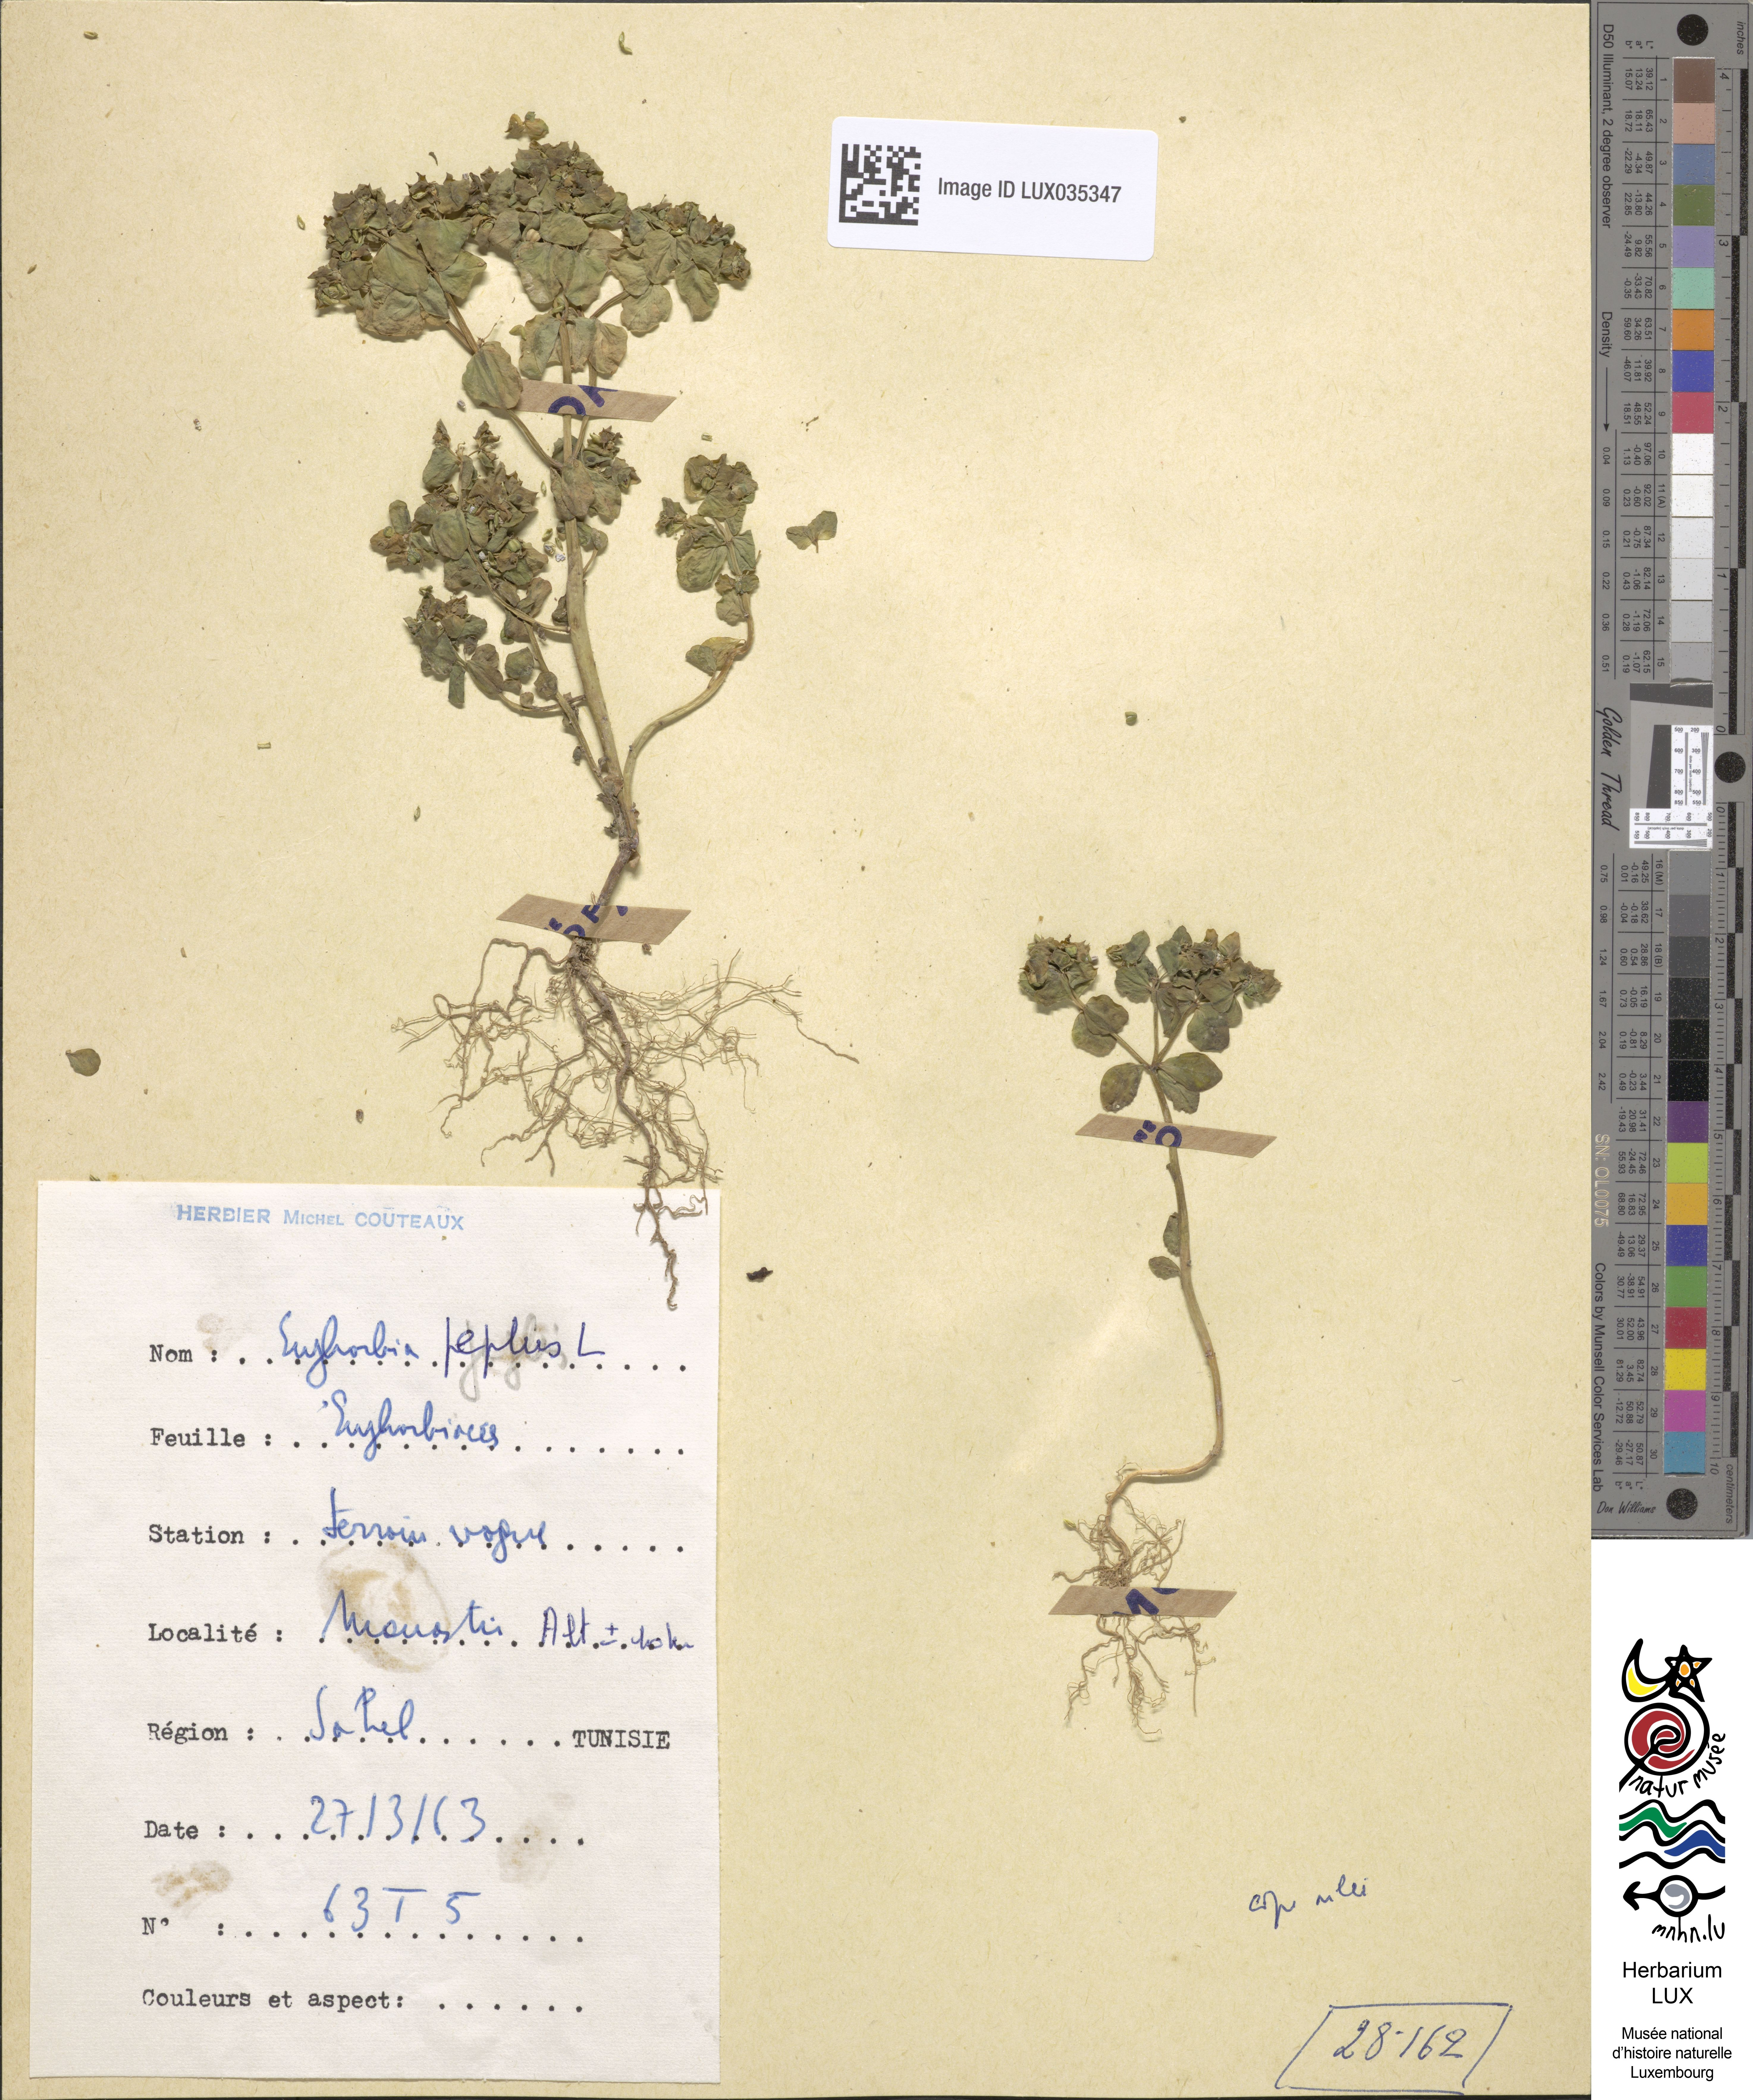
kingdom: Plantae
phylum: Tracheophyta
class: Magnoliopsida
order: Malpighiales
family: Euphorbiaceae
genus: Euphorbia
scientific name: Euphorbia peplus
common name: Petty spurge
